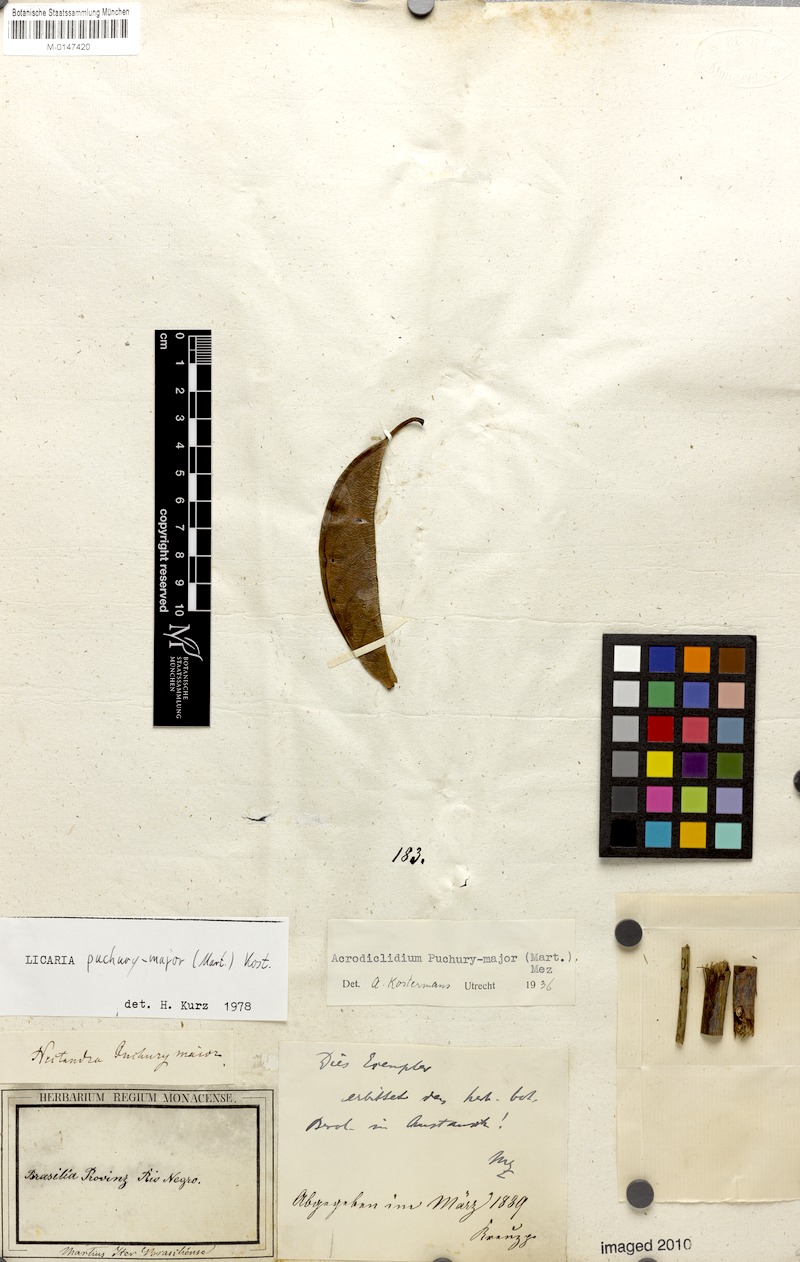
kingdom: Plantae
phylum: Tracheophyta
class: Magnoliopsida
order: Laurales
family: Lauraceae
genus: Aniba
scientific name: Aniba puchury-minor
